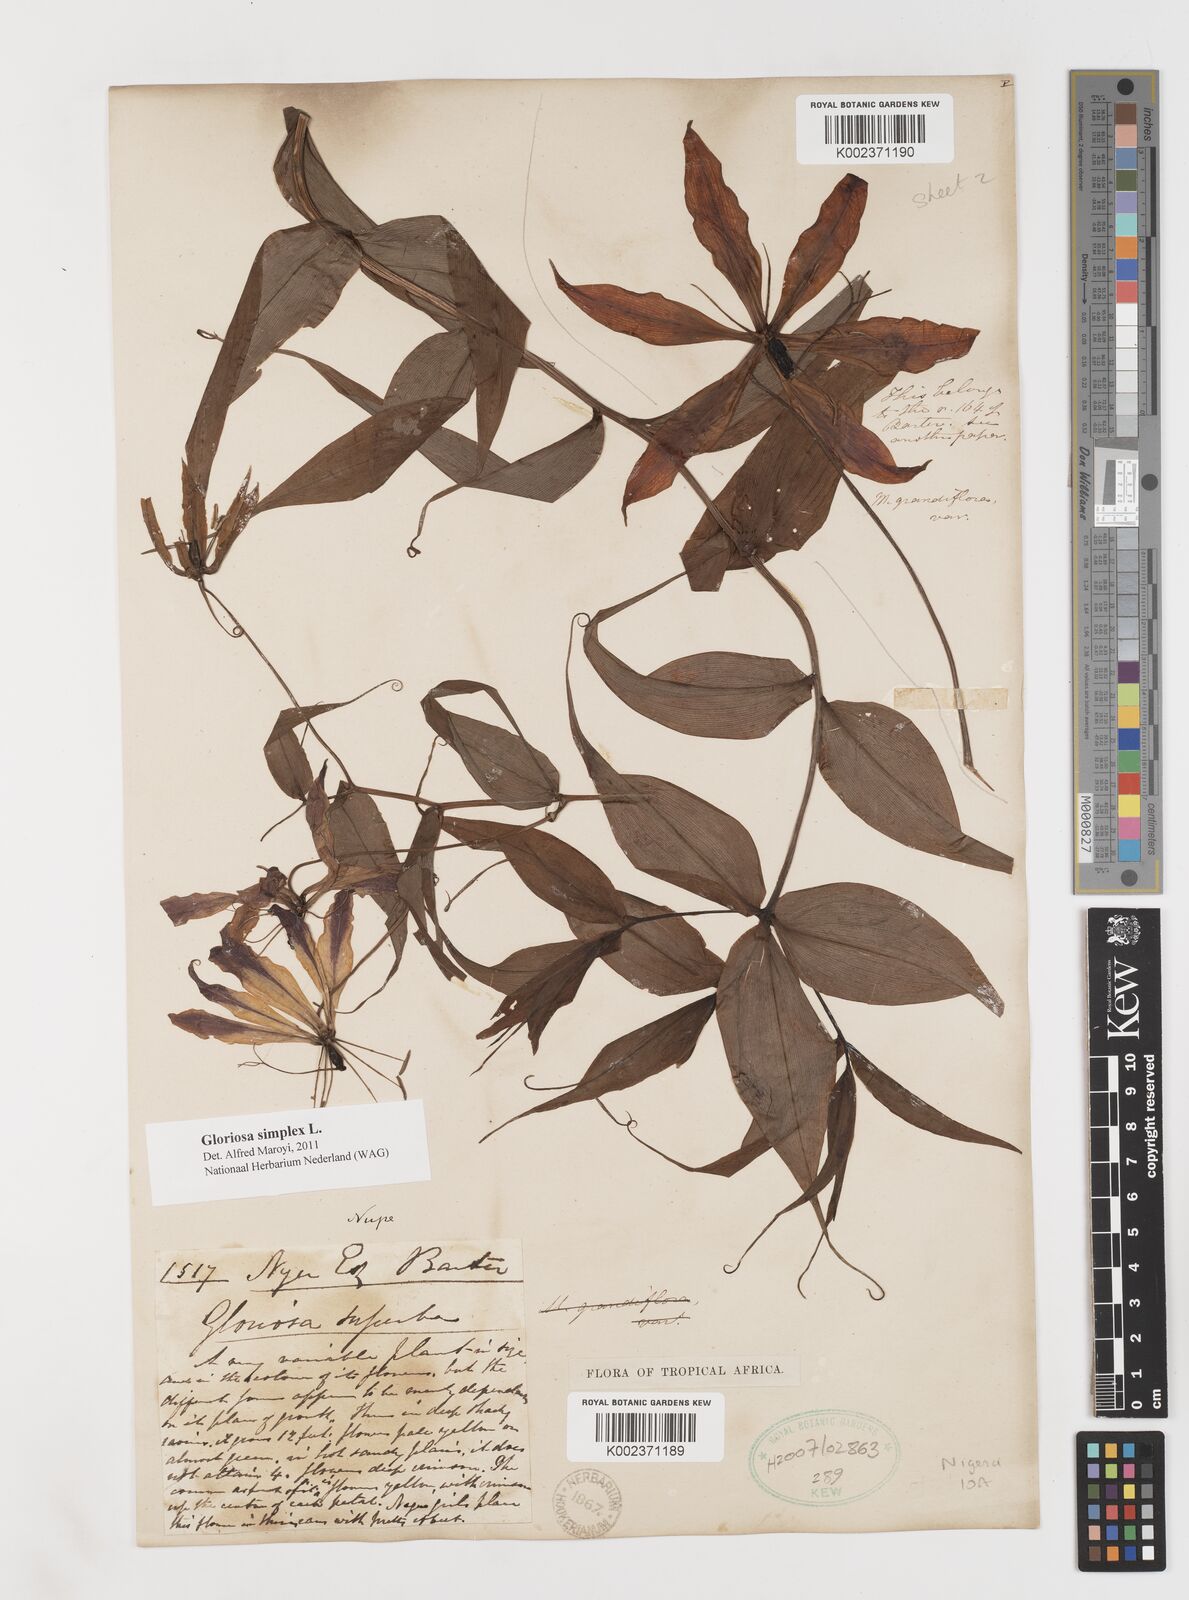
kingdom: Plantae
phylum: Tracheophyta
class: Liliopsida
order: Liliales
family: Colchicaceae
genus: Gloriosa
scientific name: Gloriosa simplex
